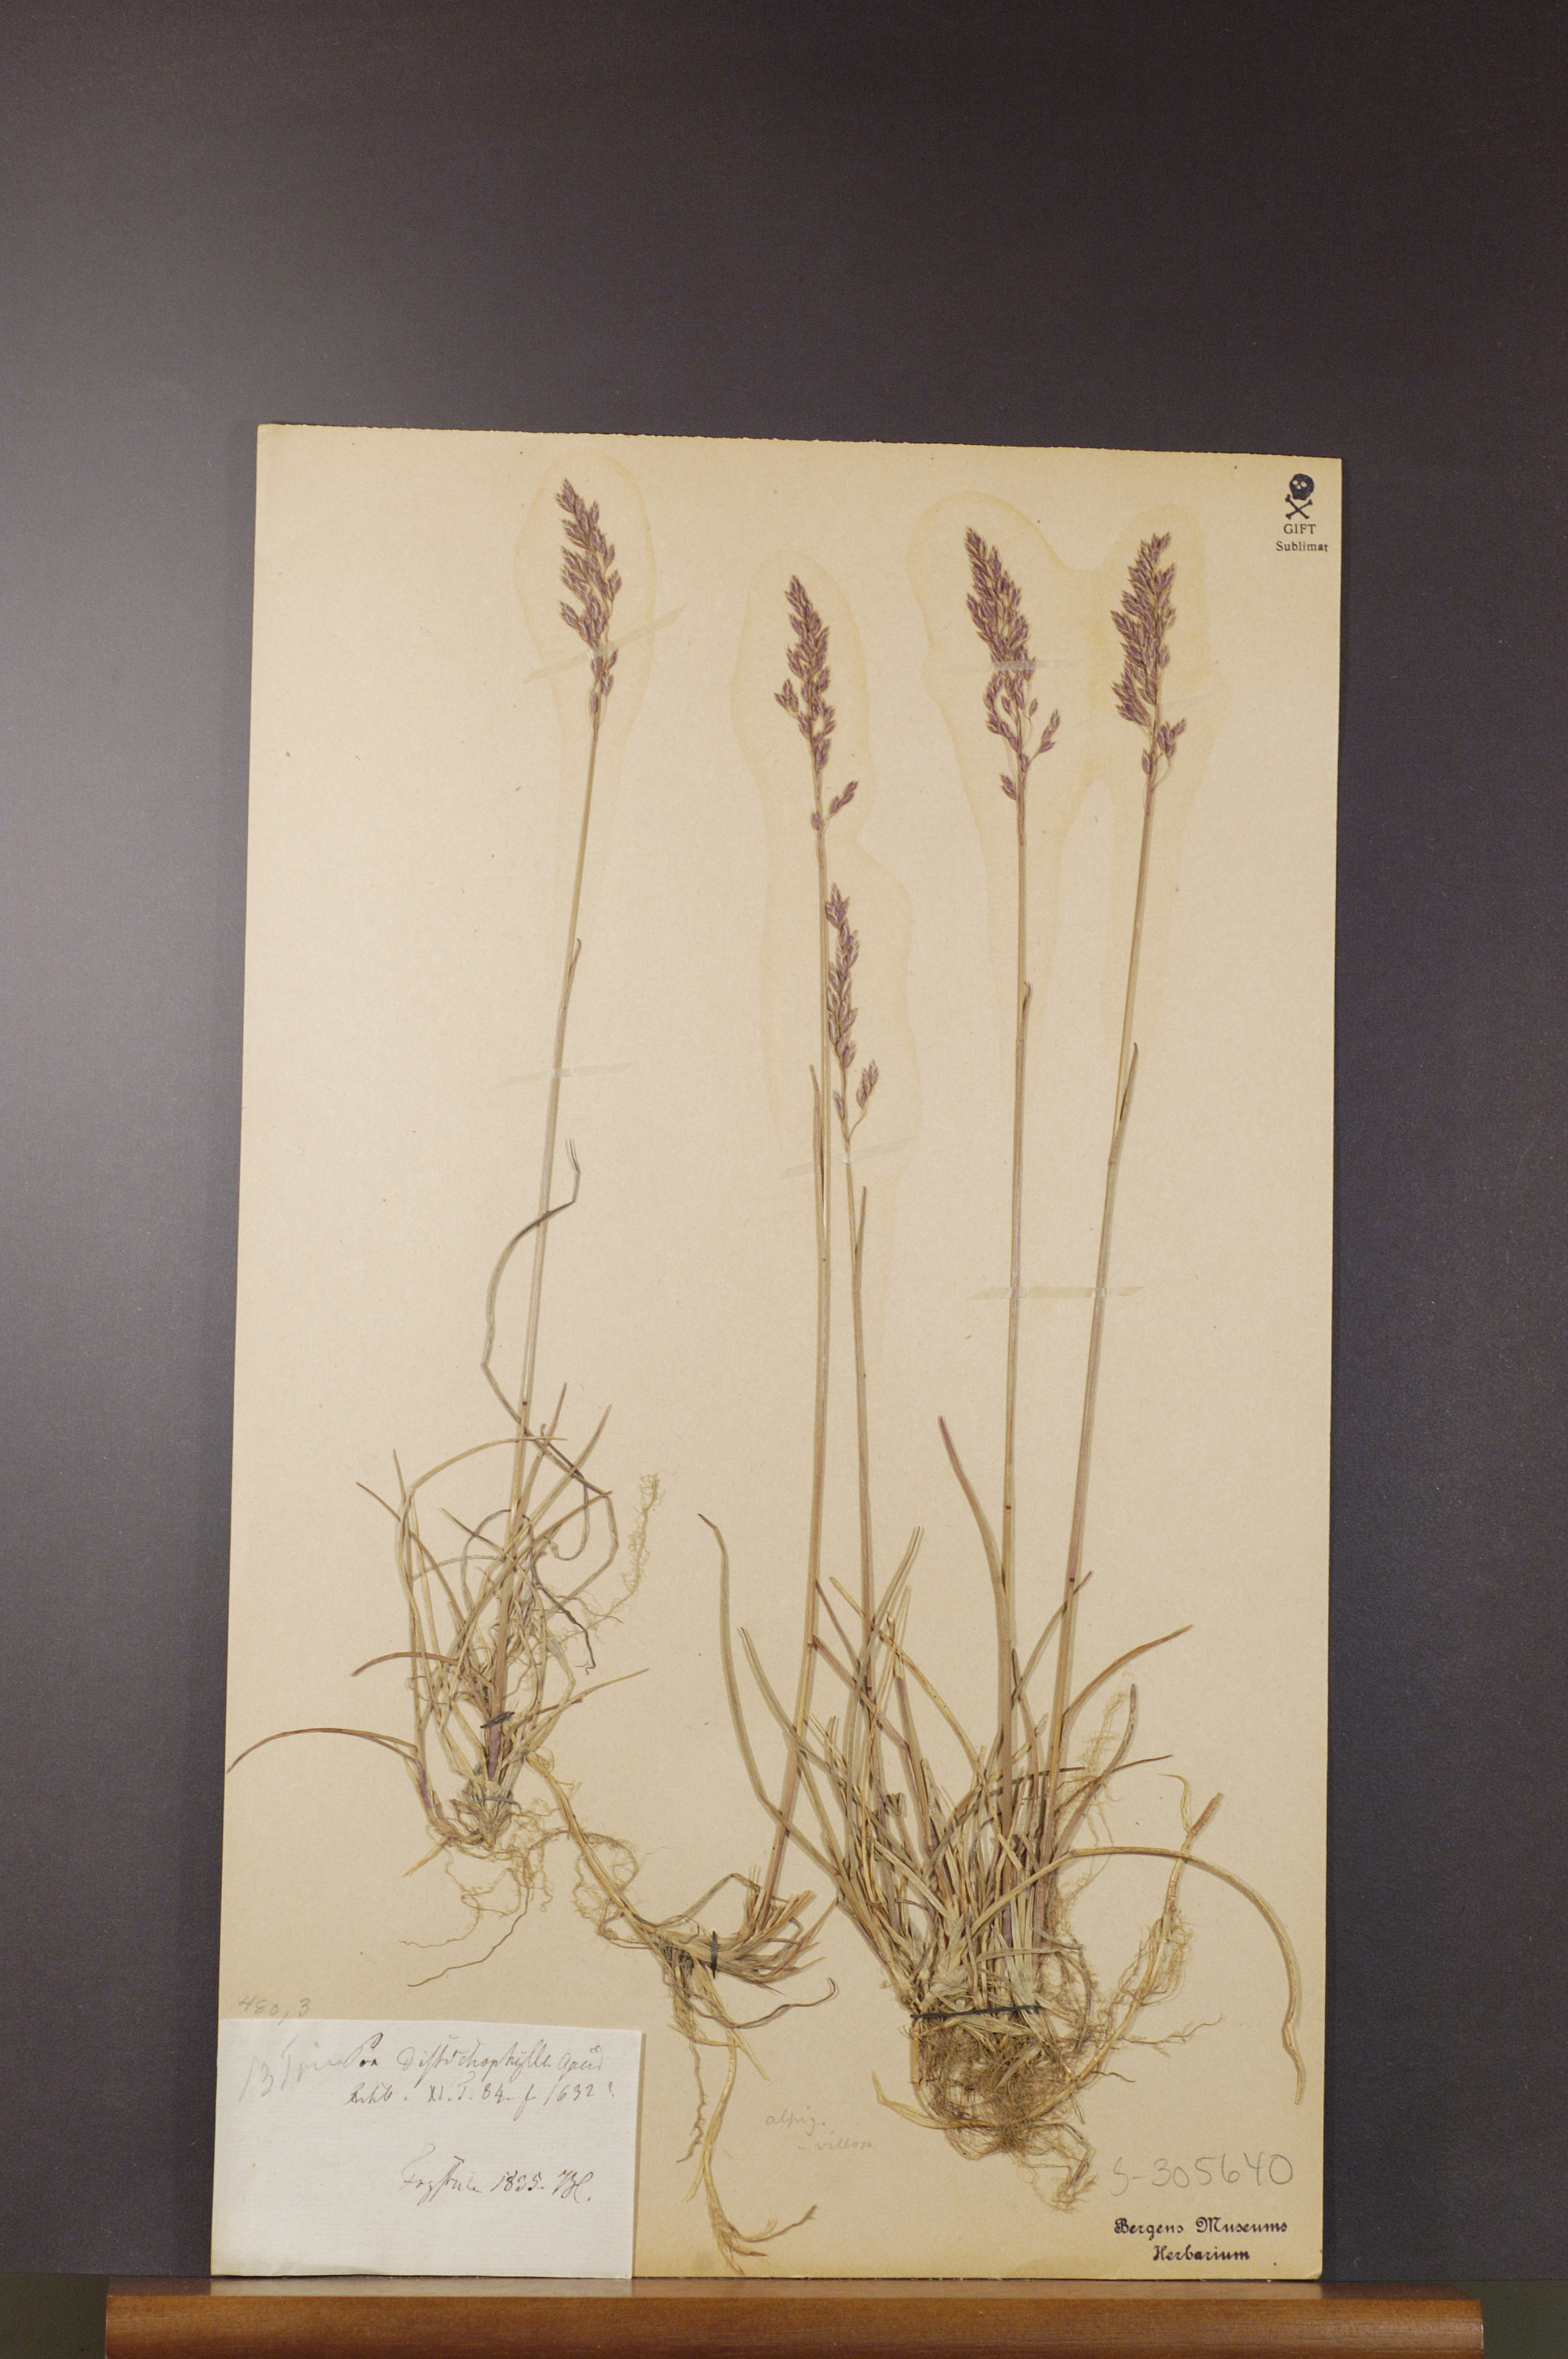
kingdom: Plantae
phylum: Tracheophyta
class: Liliopsida
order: Poales
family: Poaceae
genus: Poa
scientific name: Poa
